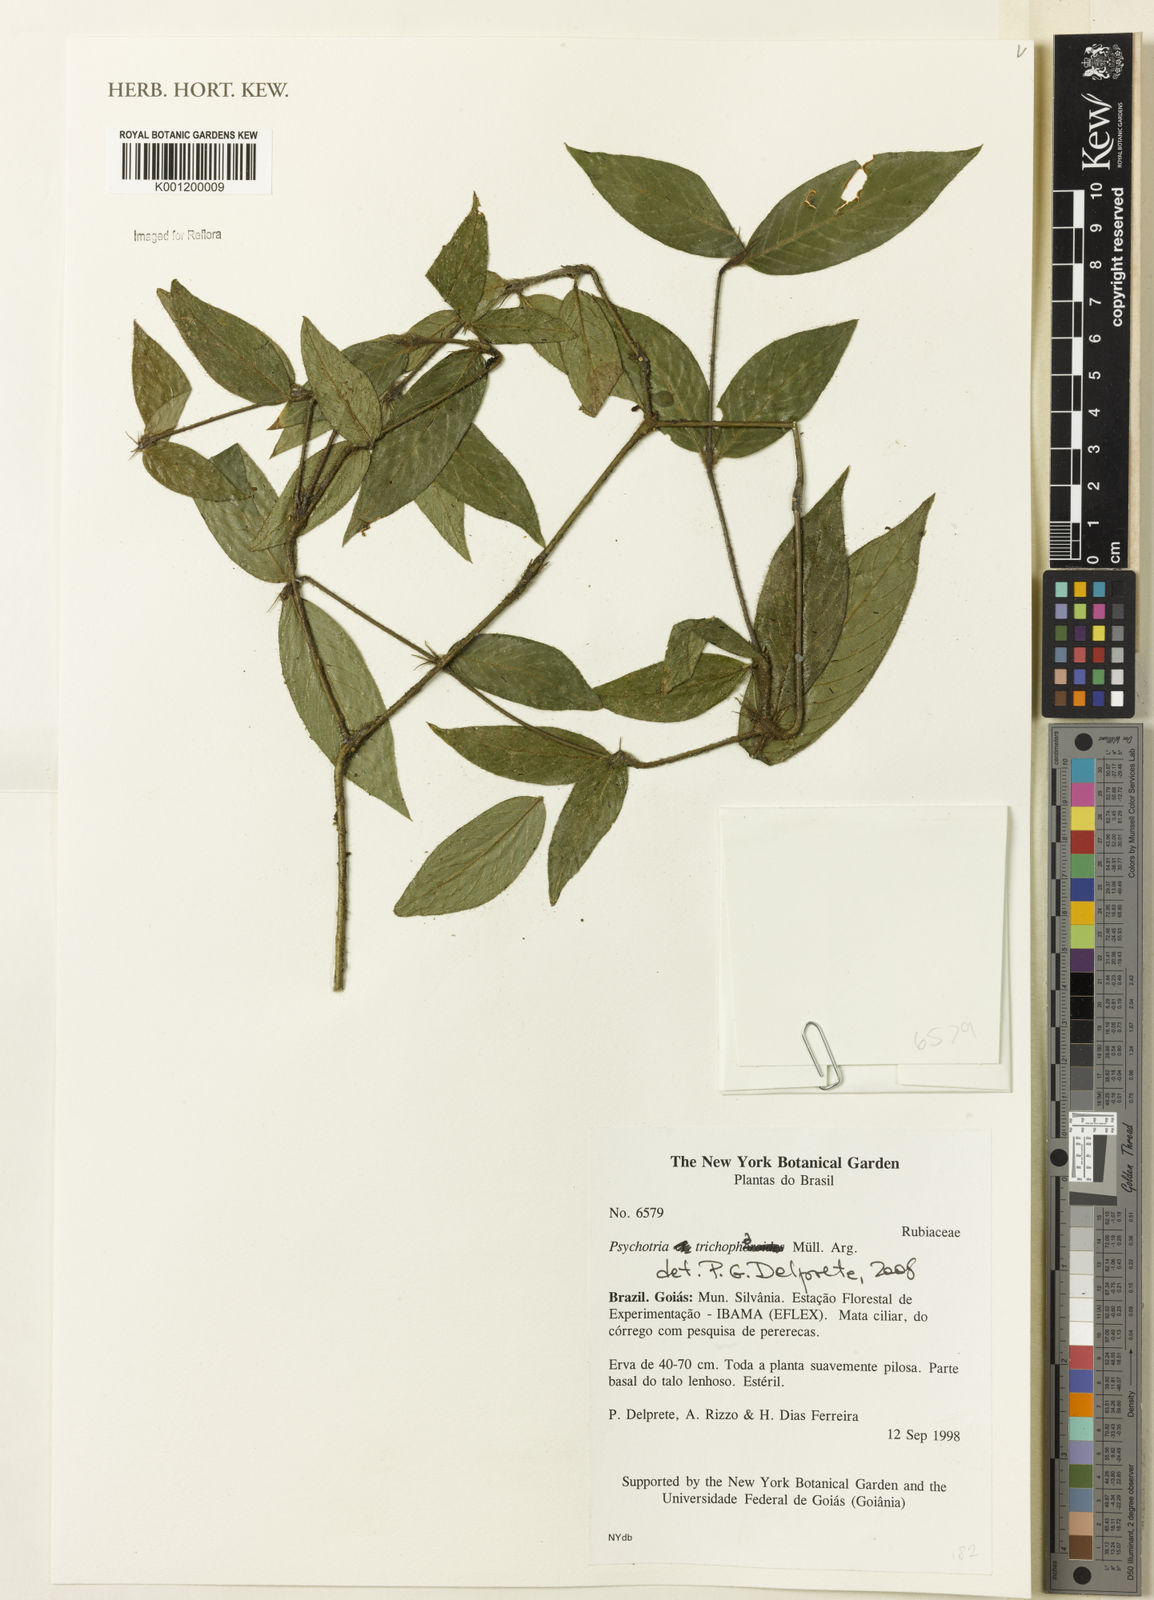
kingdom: Plantae
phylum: Tracheophyta
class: Magnoliopsida
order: Gentianales
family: Rubiaceae
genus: Psychotria
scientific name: Psychotria
